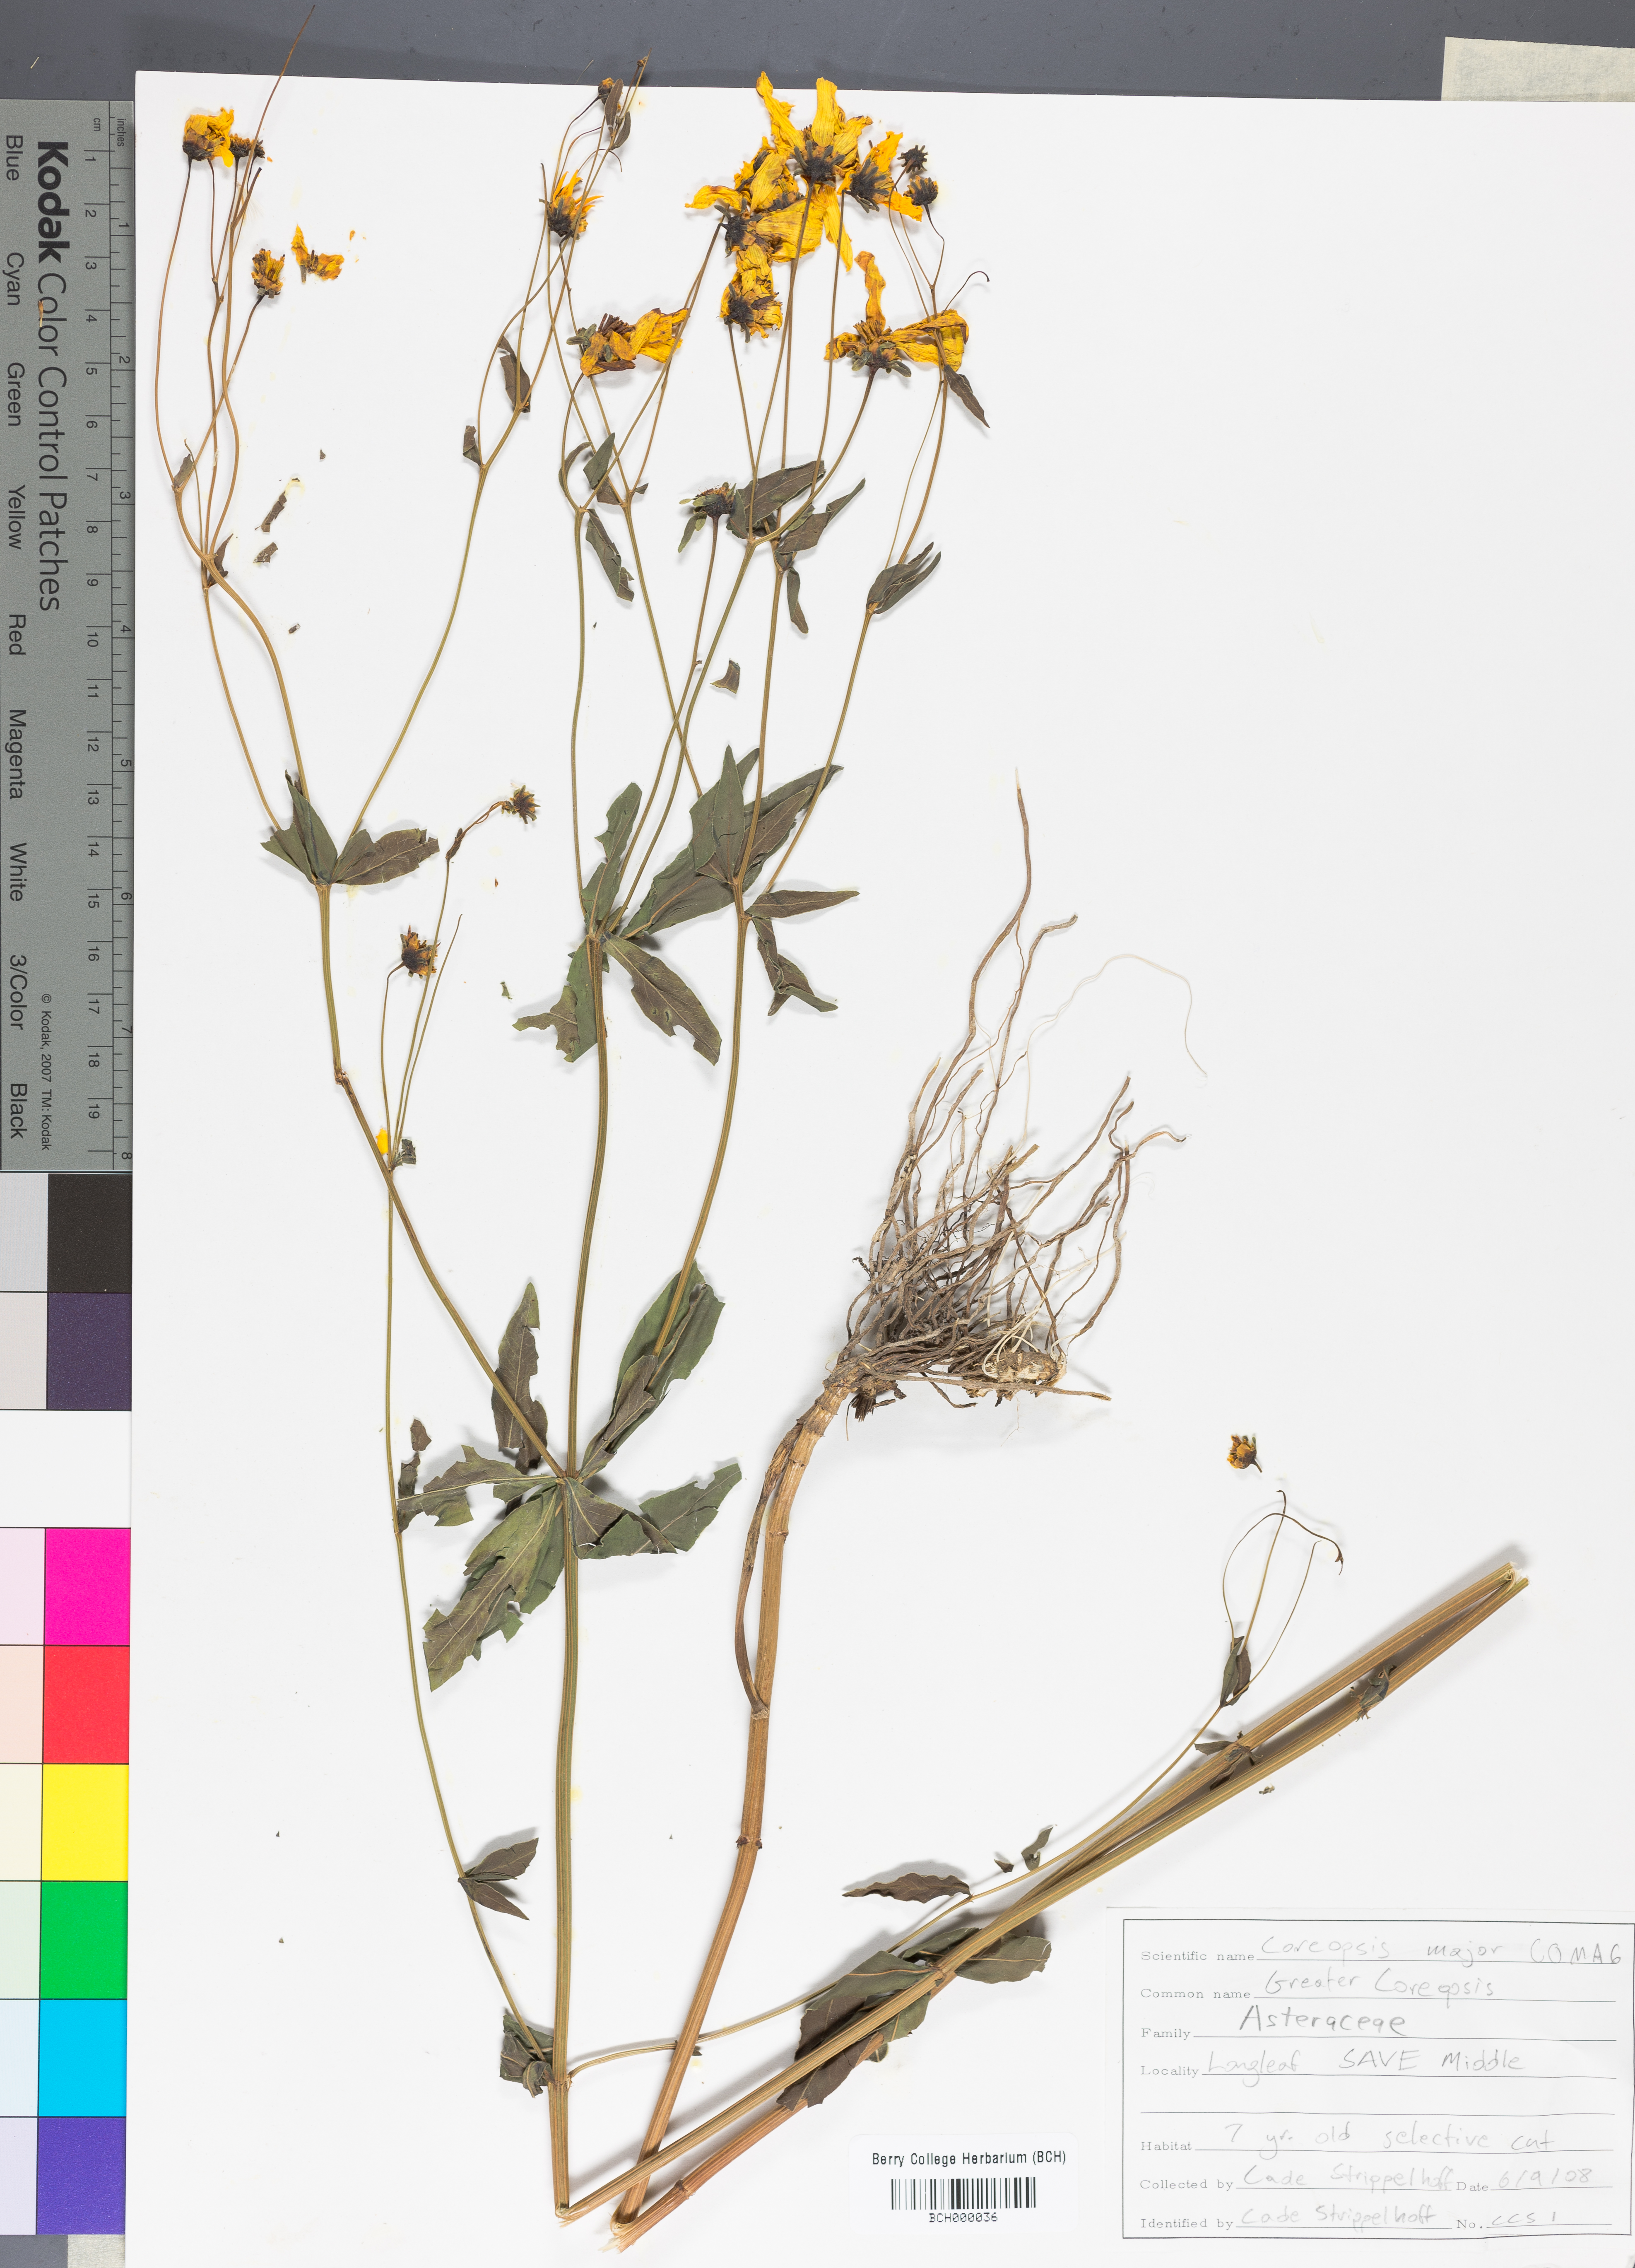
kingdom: Plantae
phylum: Tracheophyta
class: Magnoliopsida
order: Asterales
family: Asteraceae
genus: Coreopsis
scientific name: Coreopsis major
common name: Forest tickseed
